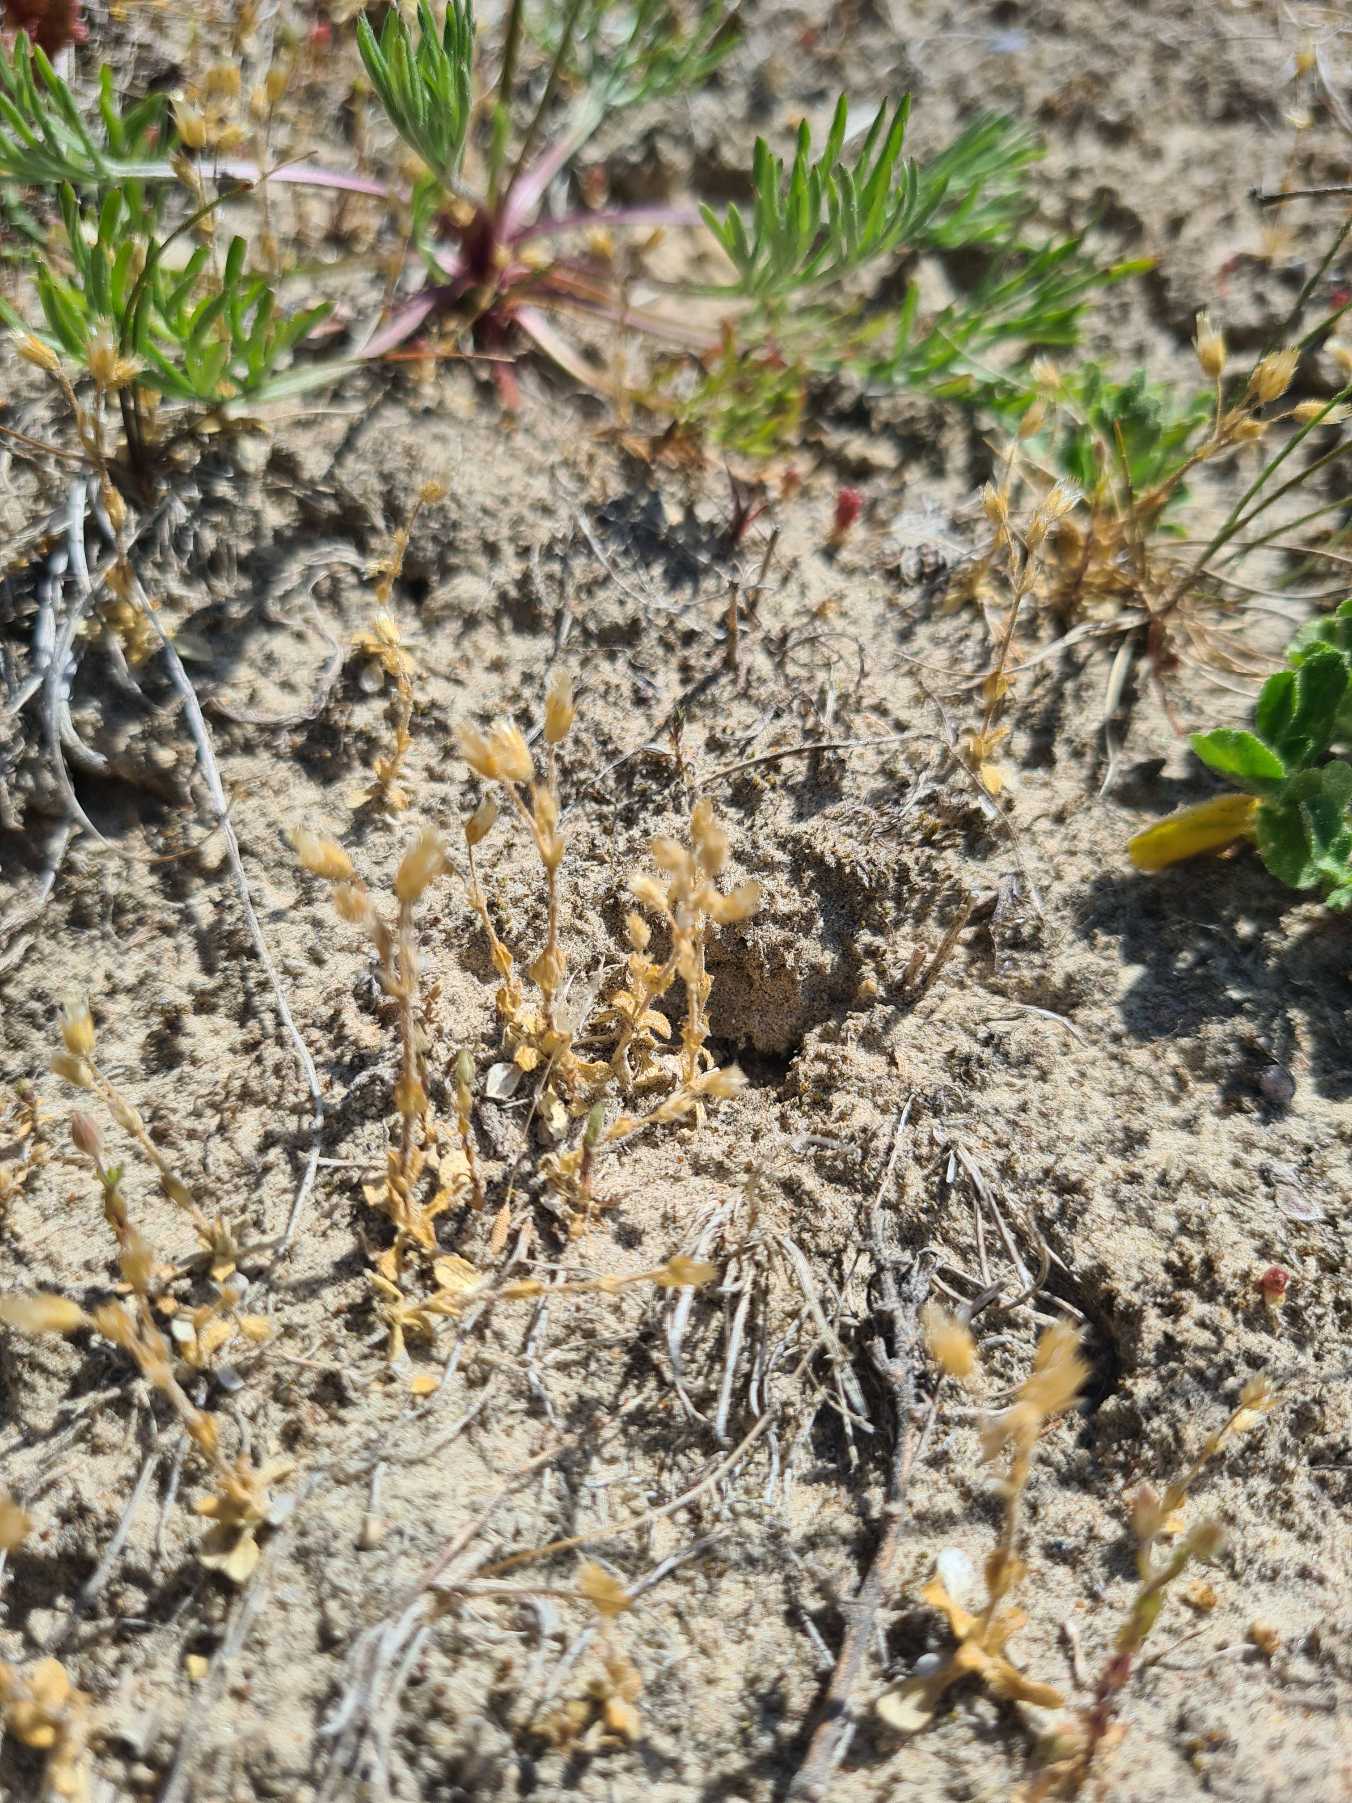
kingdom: Plantae
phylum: Tracheophyta
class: Magnoliopsida
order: Caryophyllales
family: Caryophyllaceae
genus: Cerastium
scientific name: Cerastium semidecandrum
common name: Femhannet hønsetarm
